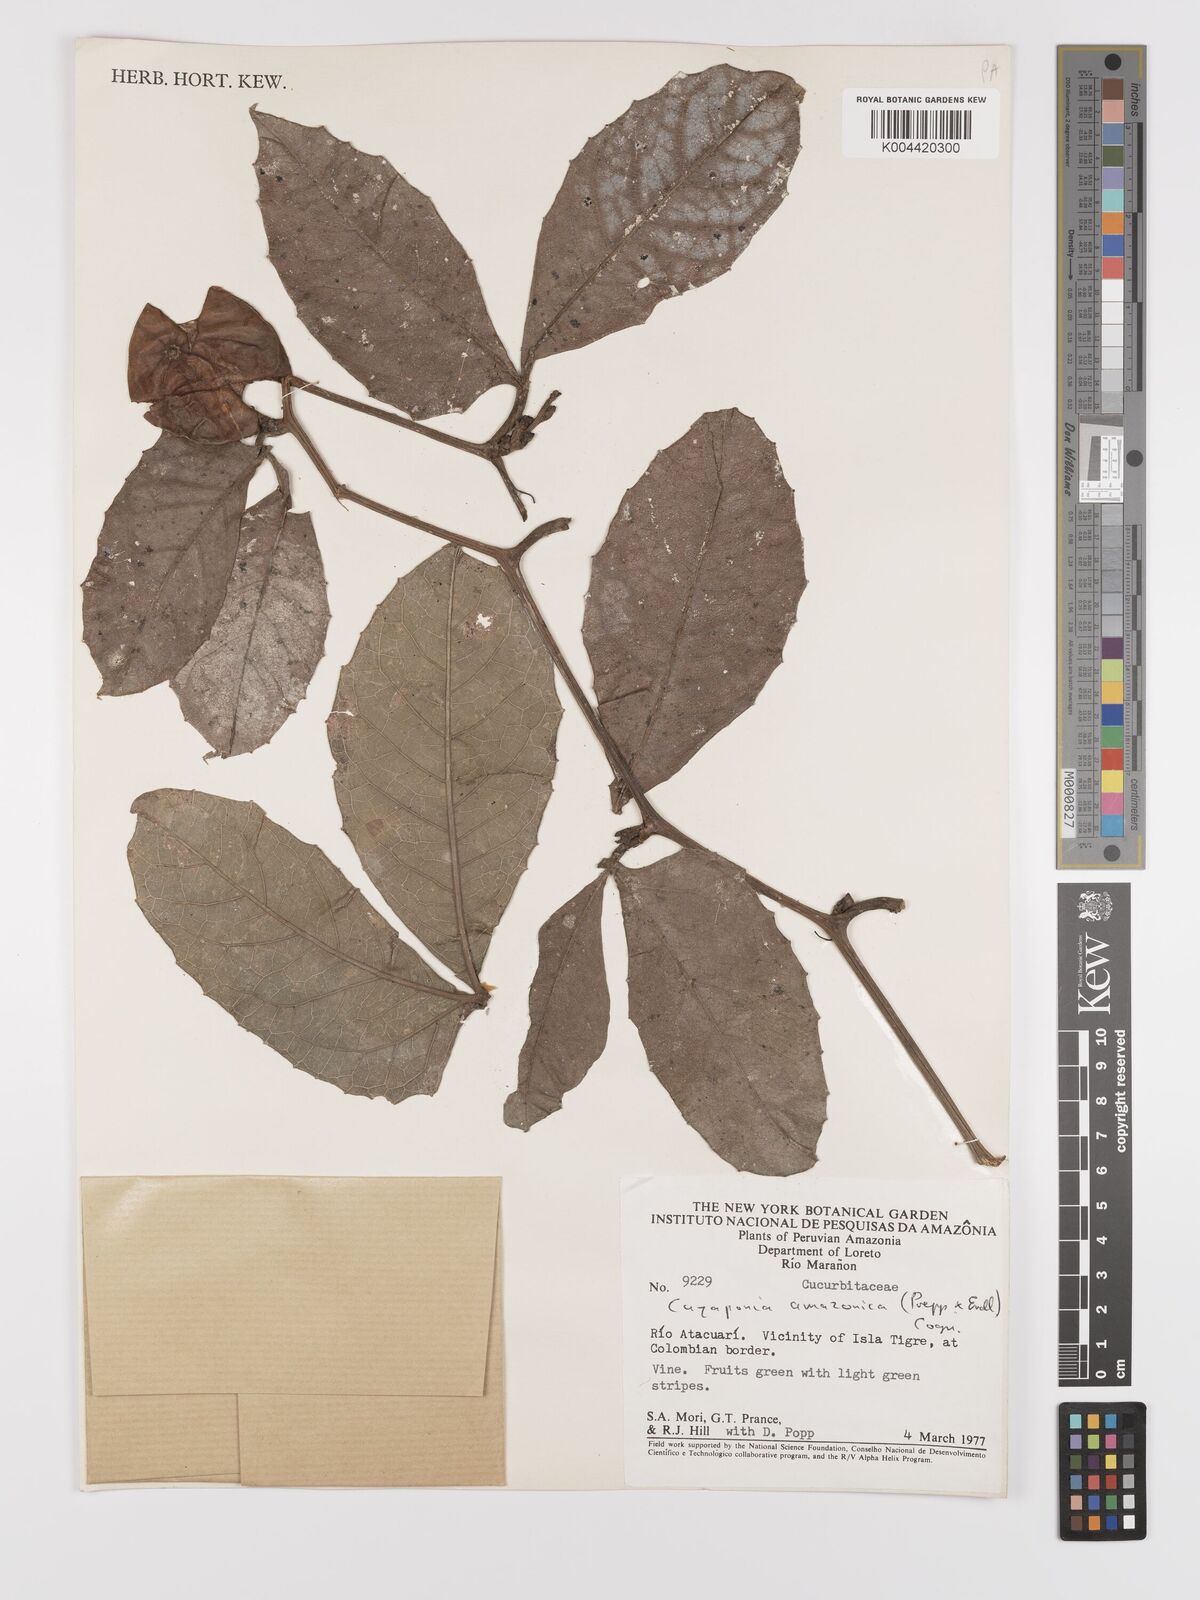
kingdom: Plantae
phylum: Tracheophyta
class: Magnoliopsida
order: Cucurbitales
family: Cucurbitaceae
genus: Cayaponia
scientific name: Cayaponia amazonica
